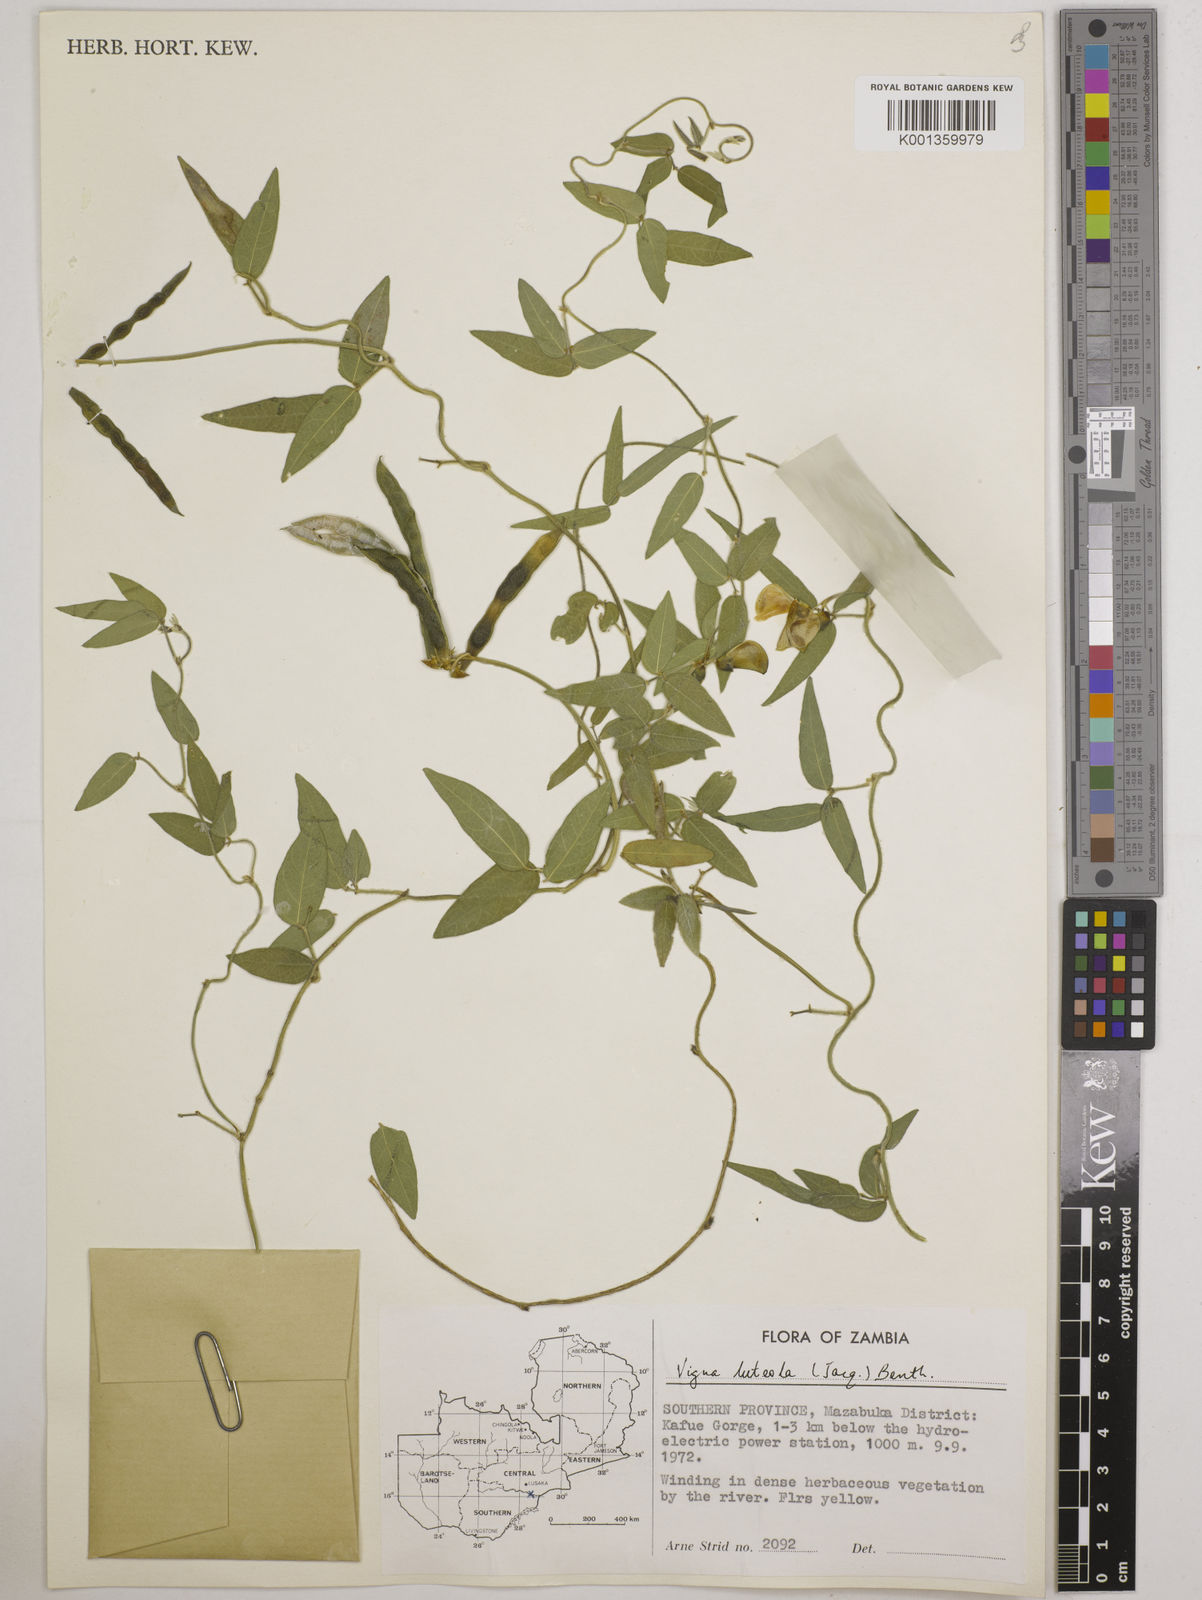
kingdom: Plantae
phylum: Tracheophyta
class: Magnoliopsida
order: Fabales
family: Fabaceae
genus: Vigna
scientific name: Vigna luteola
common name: Hairypod cowpea
